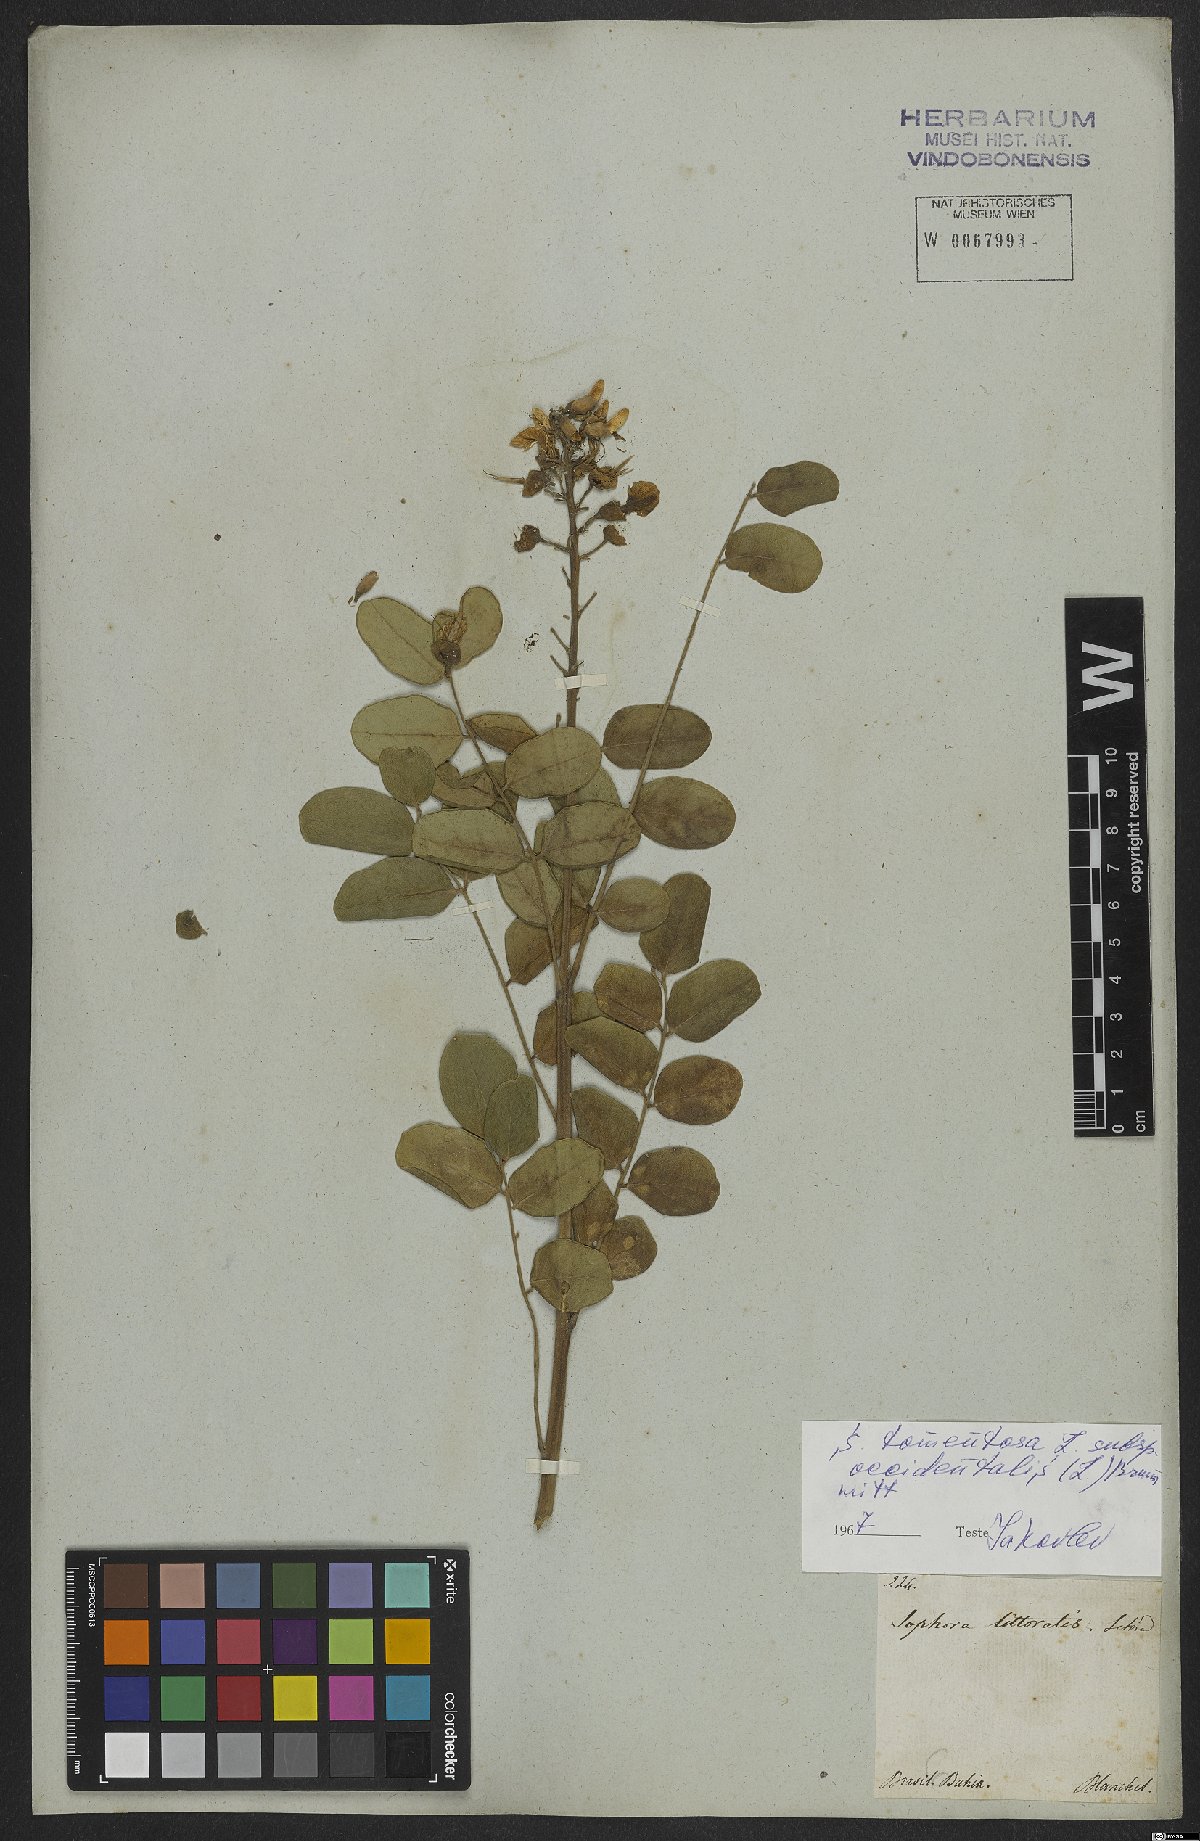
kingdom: Plantae
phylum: Tracheophyta
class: Magnoliopsida
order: Fabales
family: Fabaceae
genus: Sophora
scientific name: Sophora tomentosa
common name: Yellow necklacepod
